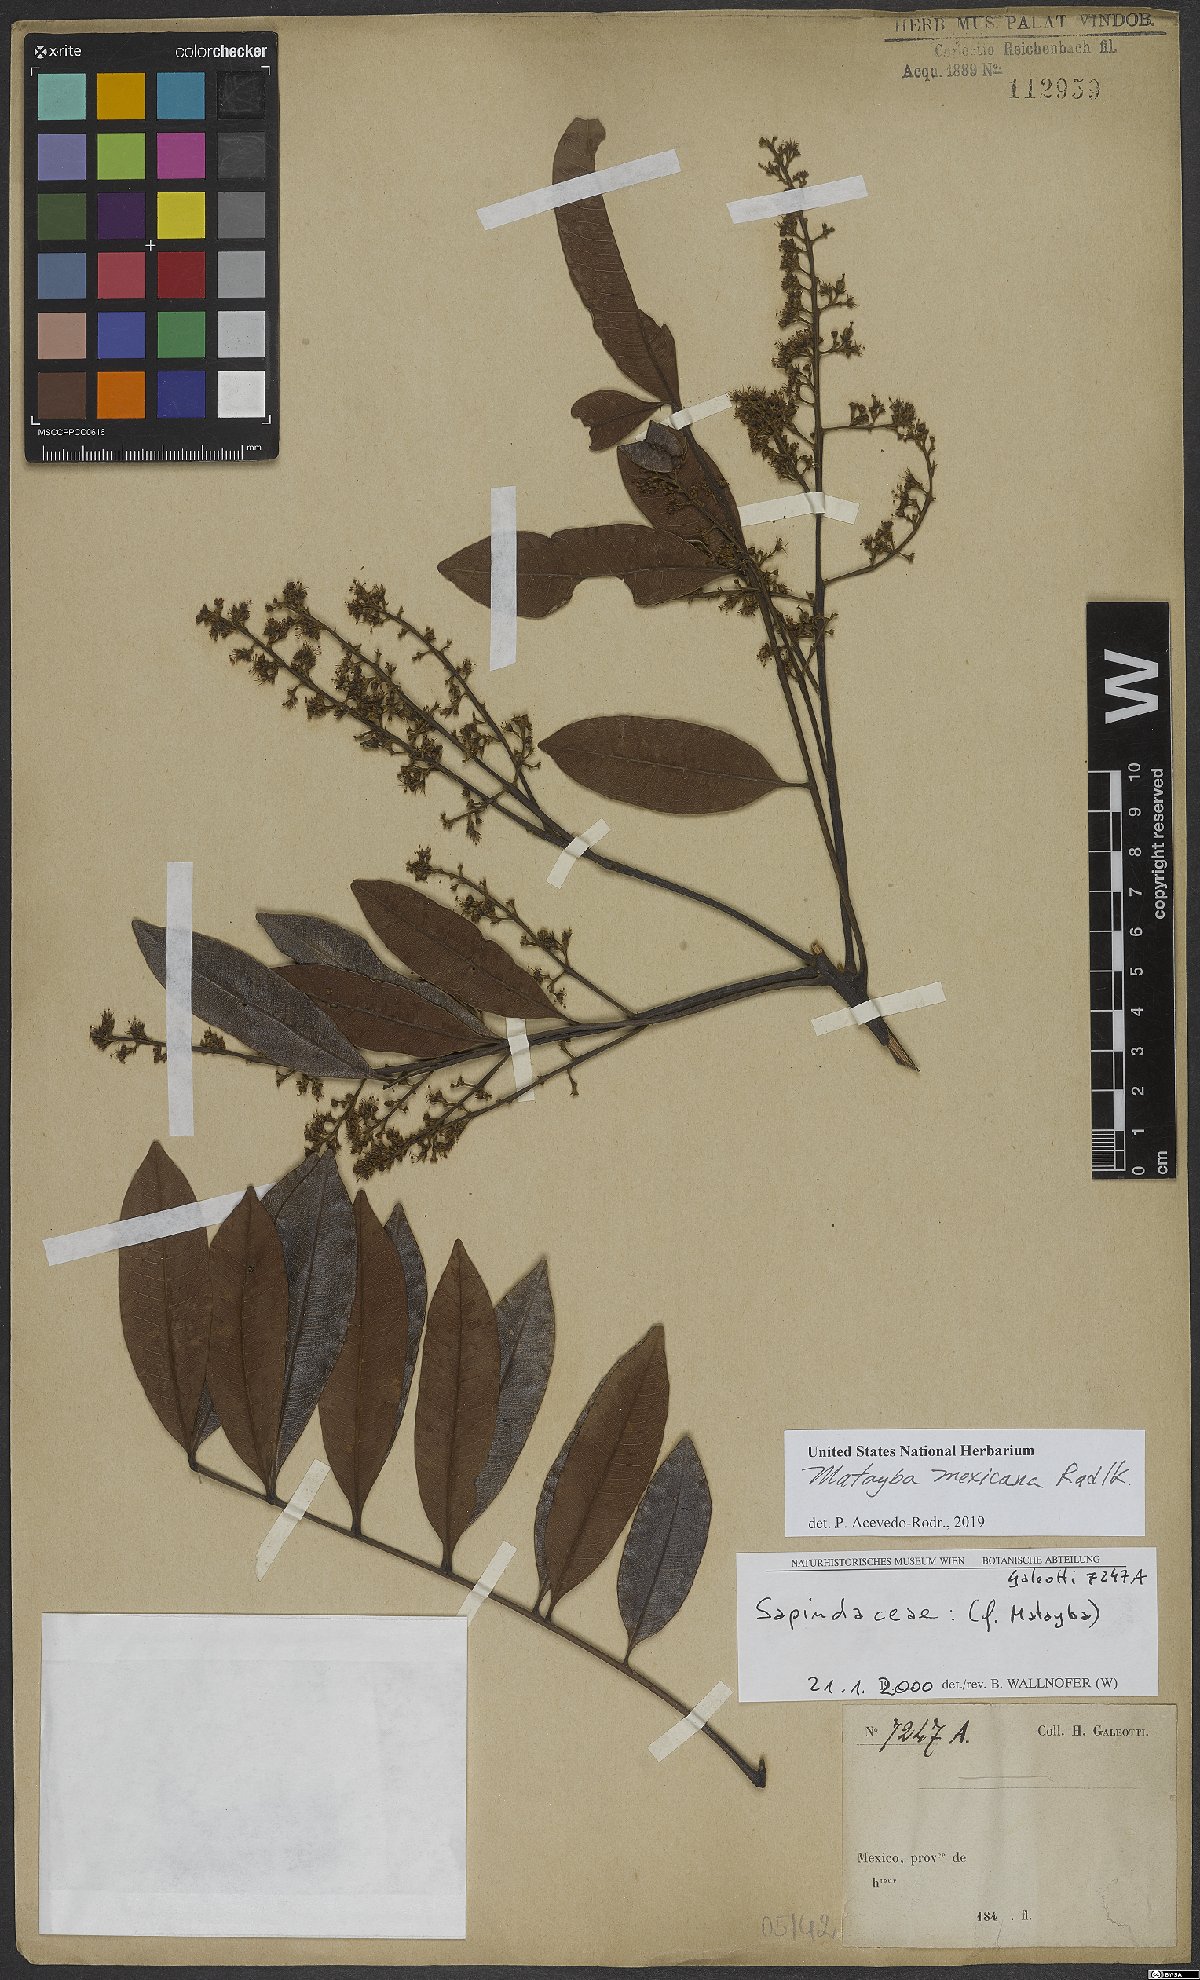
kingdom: Plantae
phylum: Tracheophyta
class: Magnoliopsida
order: Sapindales
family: Sapindaceae
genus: Matayba
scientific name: Matayba mexicana
